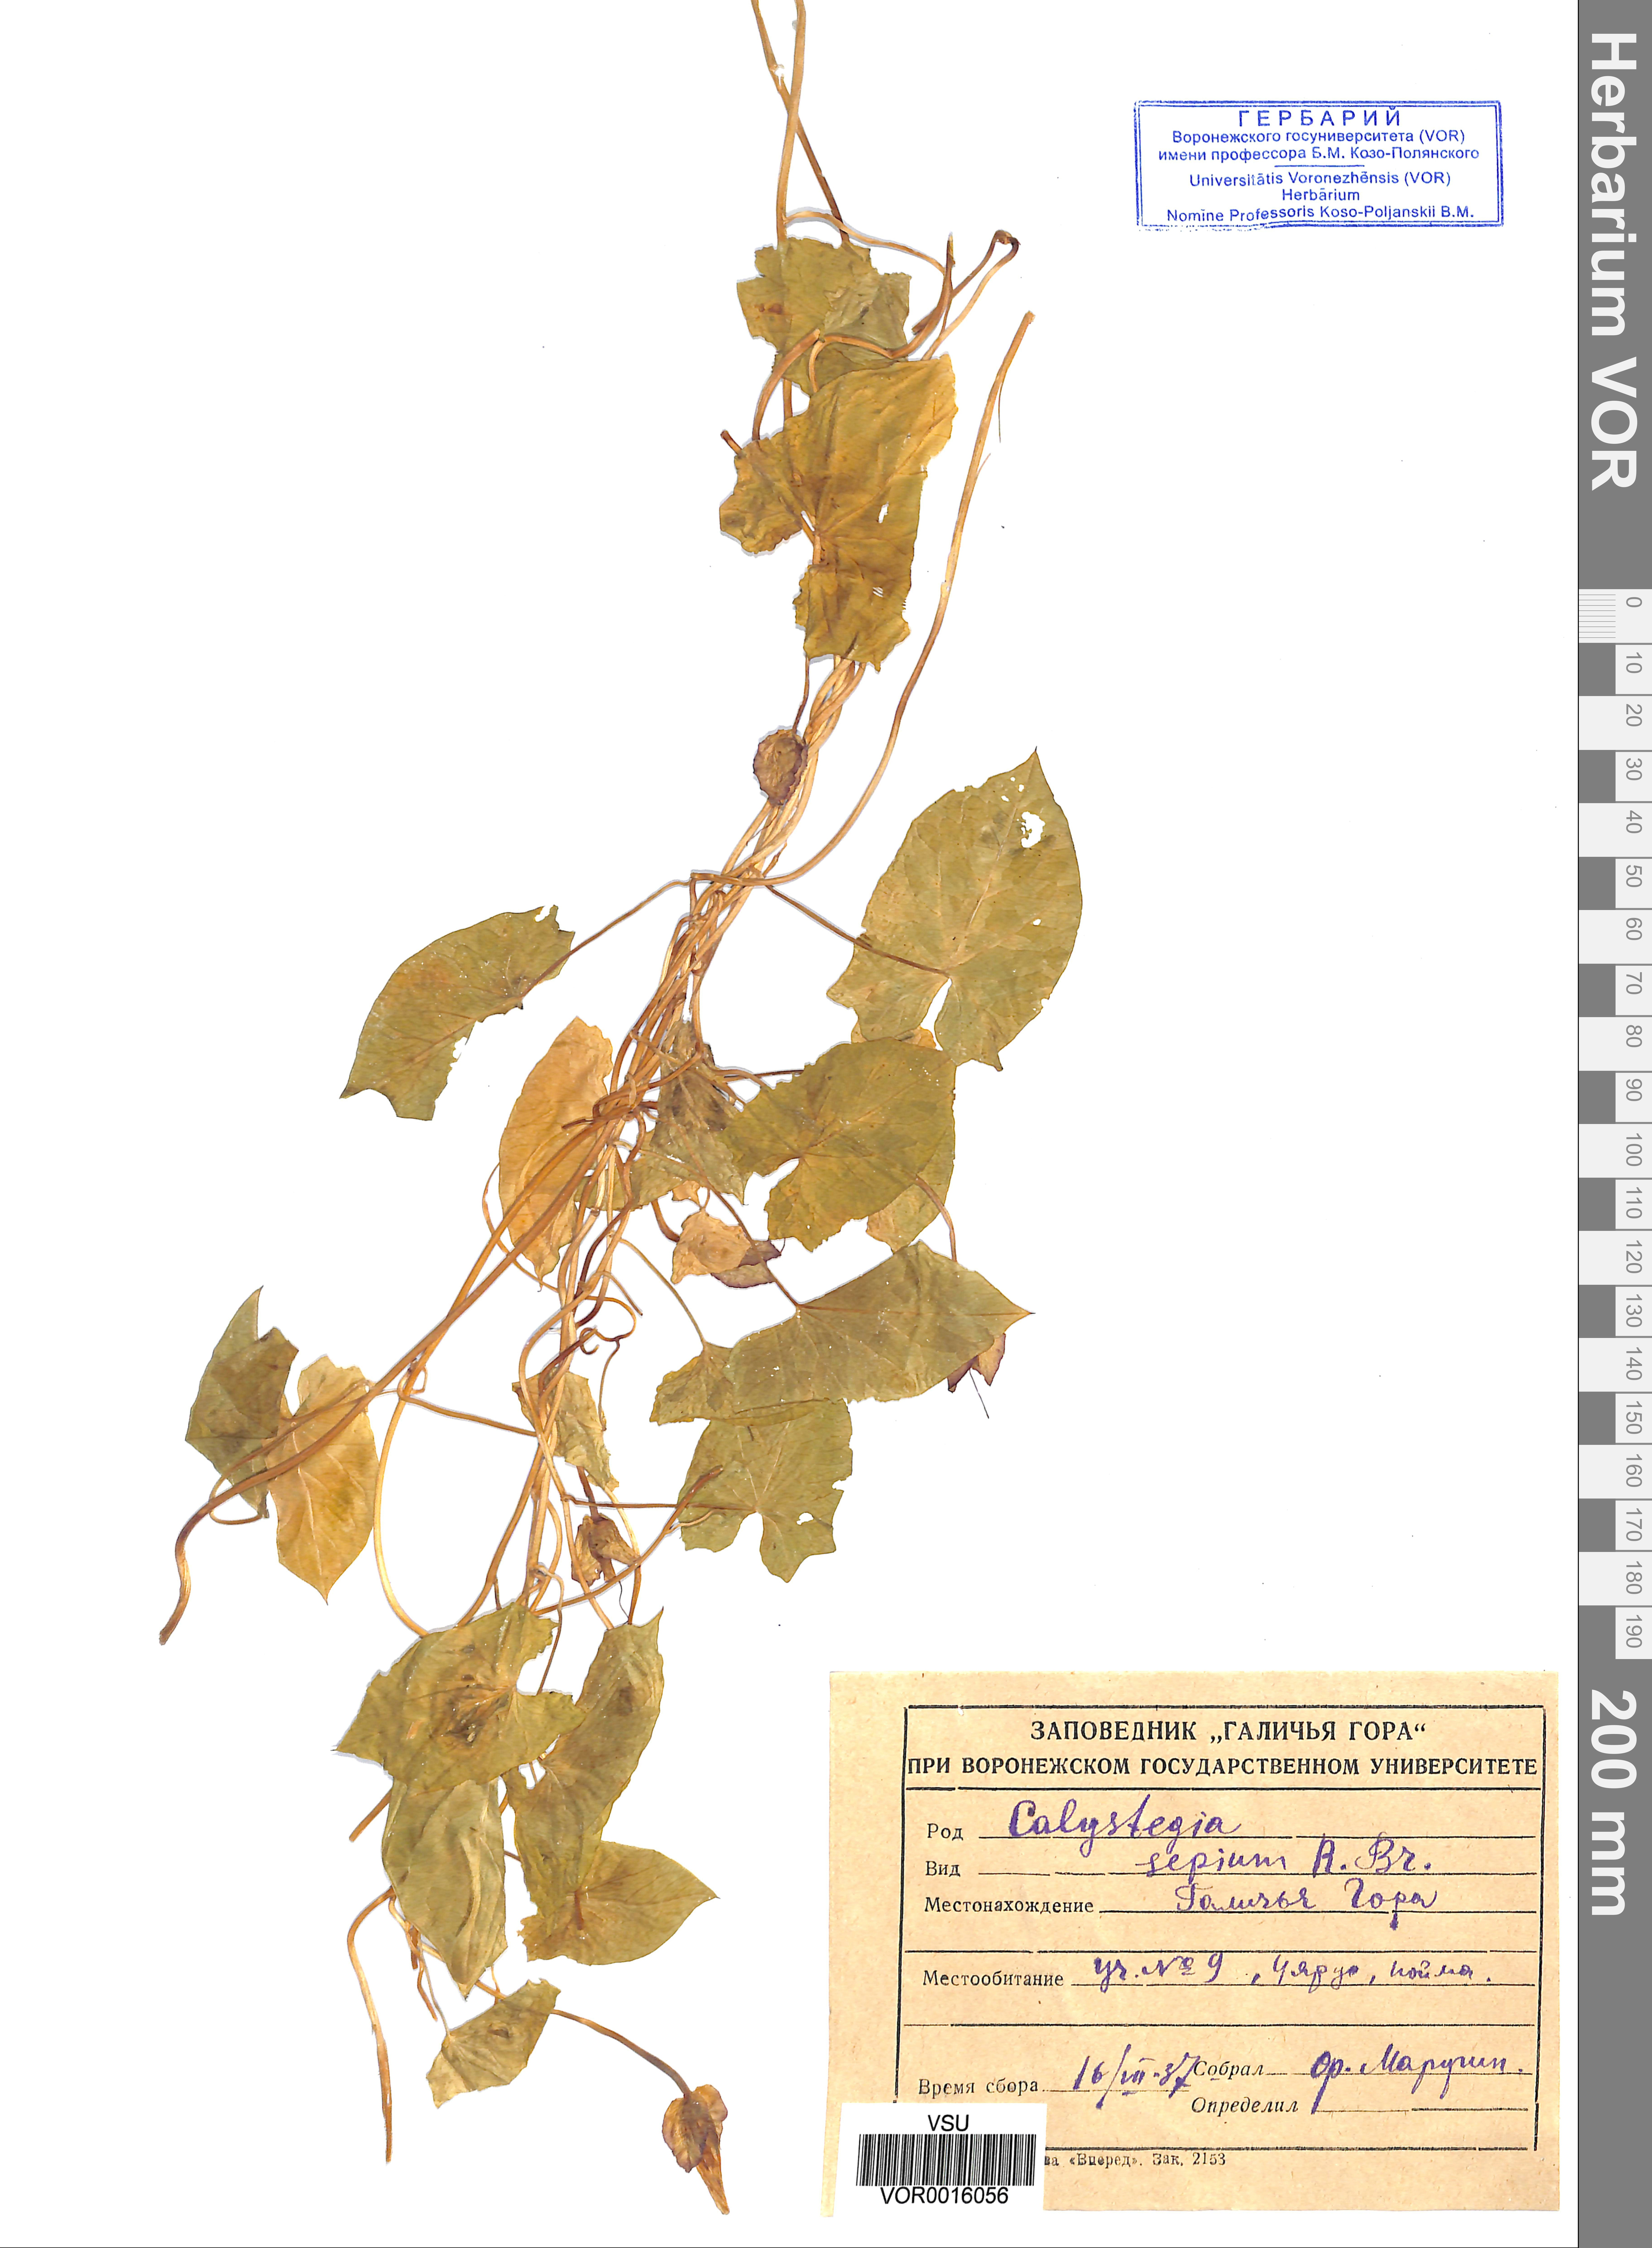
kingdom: Plantae
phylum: Tracheophyta
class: Magnoliopsida
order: Solanales
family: Convolvulaceae
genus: Calystegia
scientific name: Calystegia sepium
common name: Hedge bindweed
